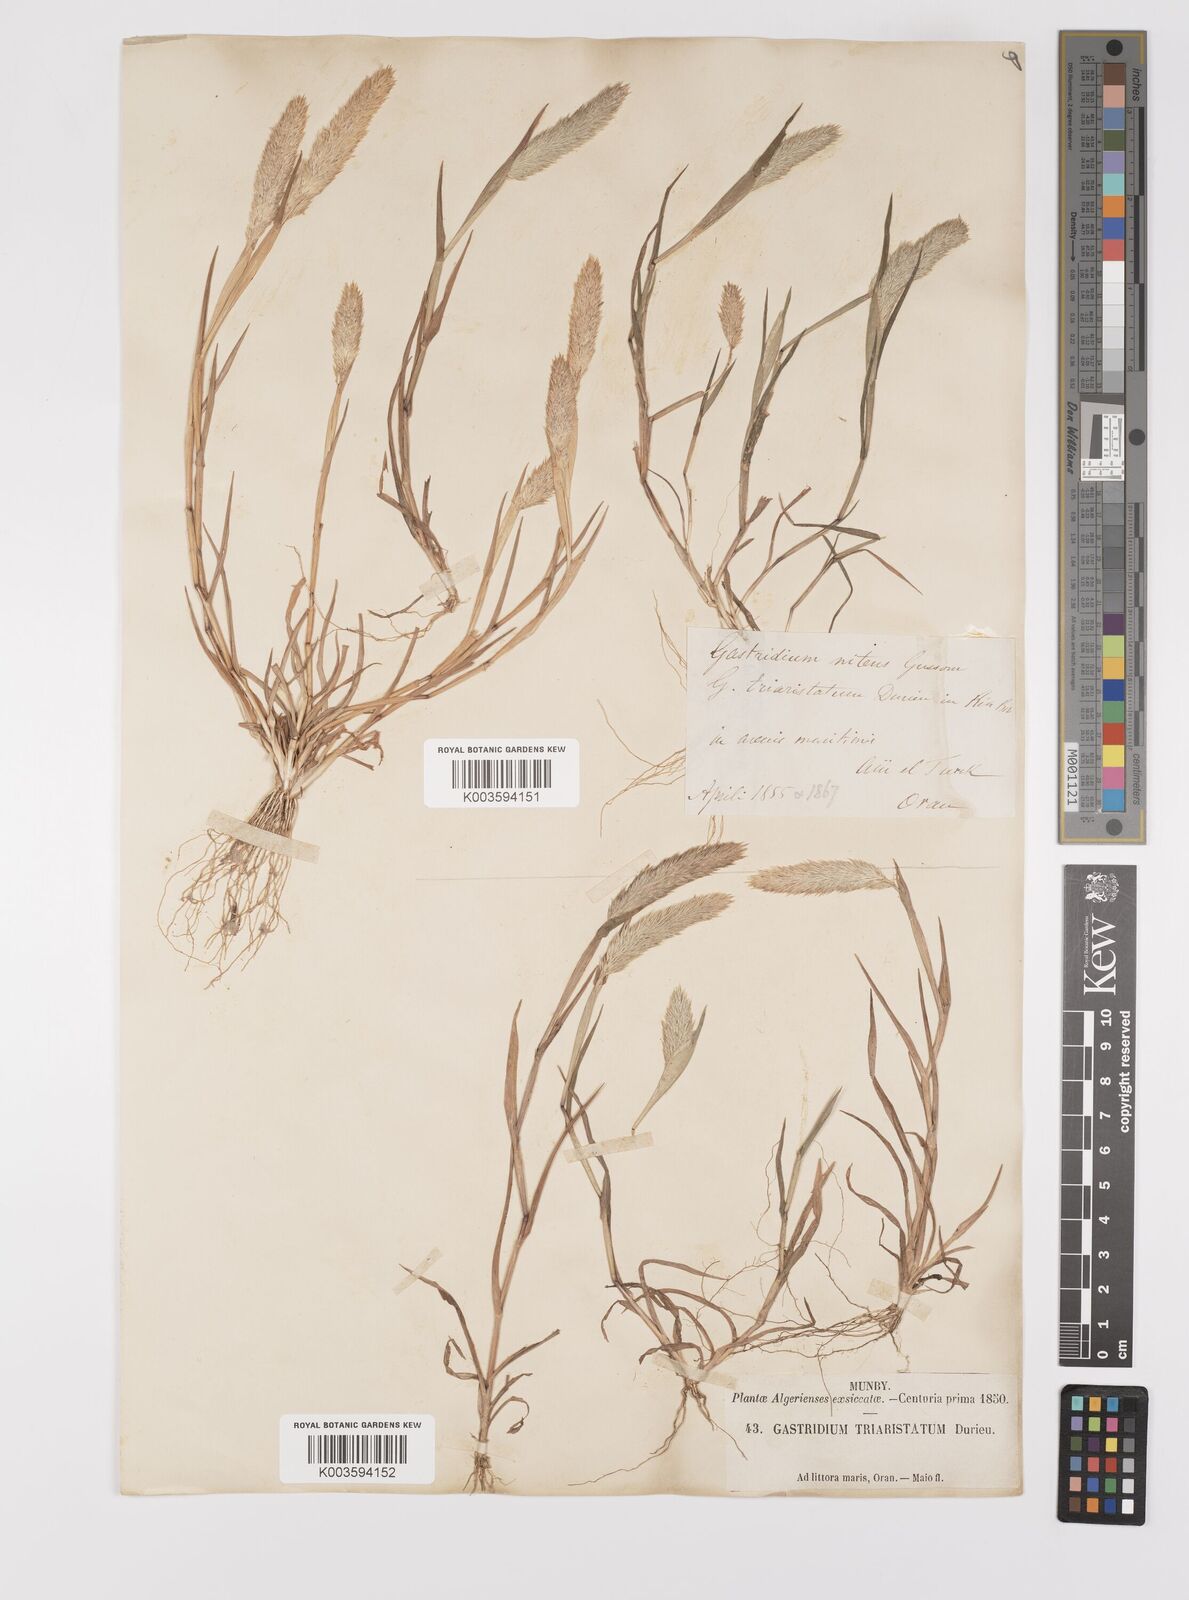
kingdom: Plantae
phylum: Tracheophyta
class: Liliopsida
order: Poales
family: Poaceae
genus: Triplachne
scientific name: Triplachne nitens
